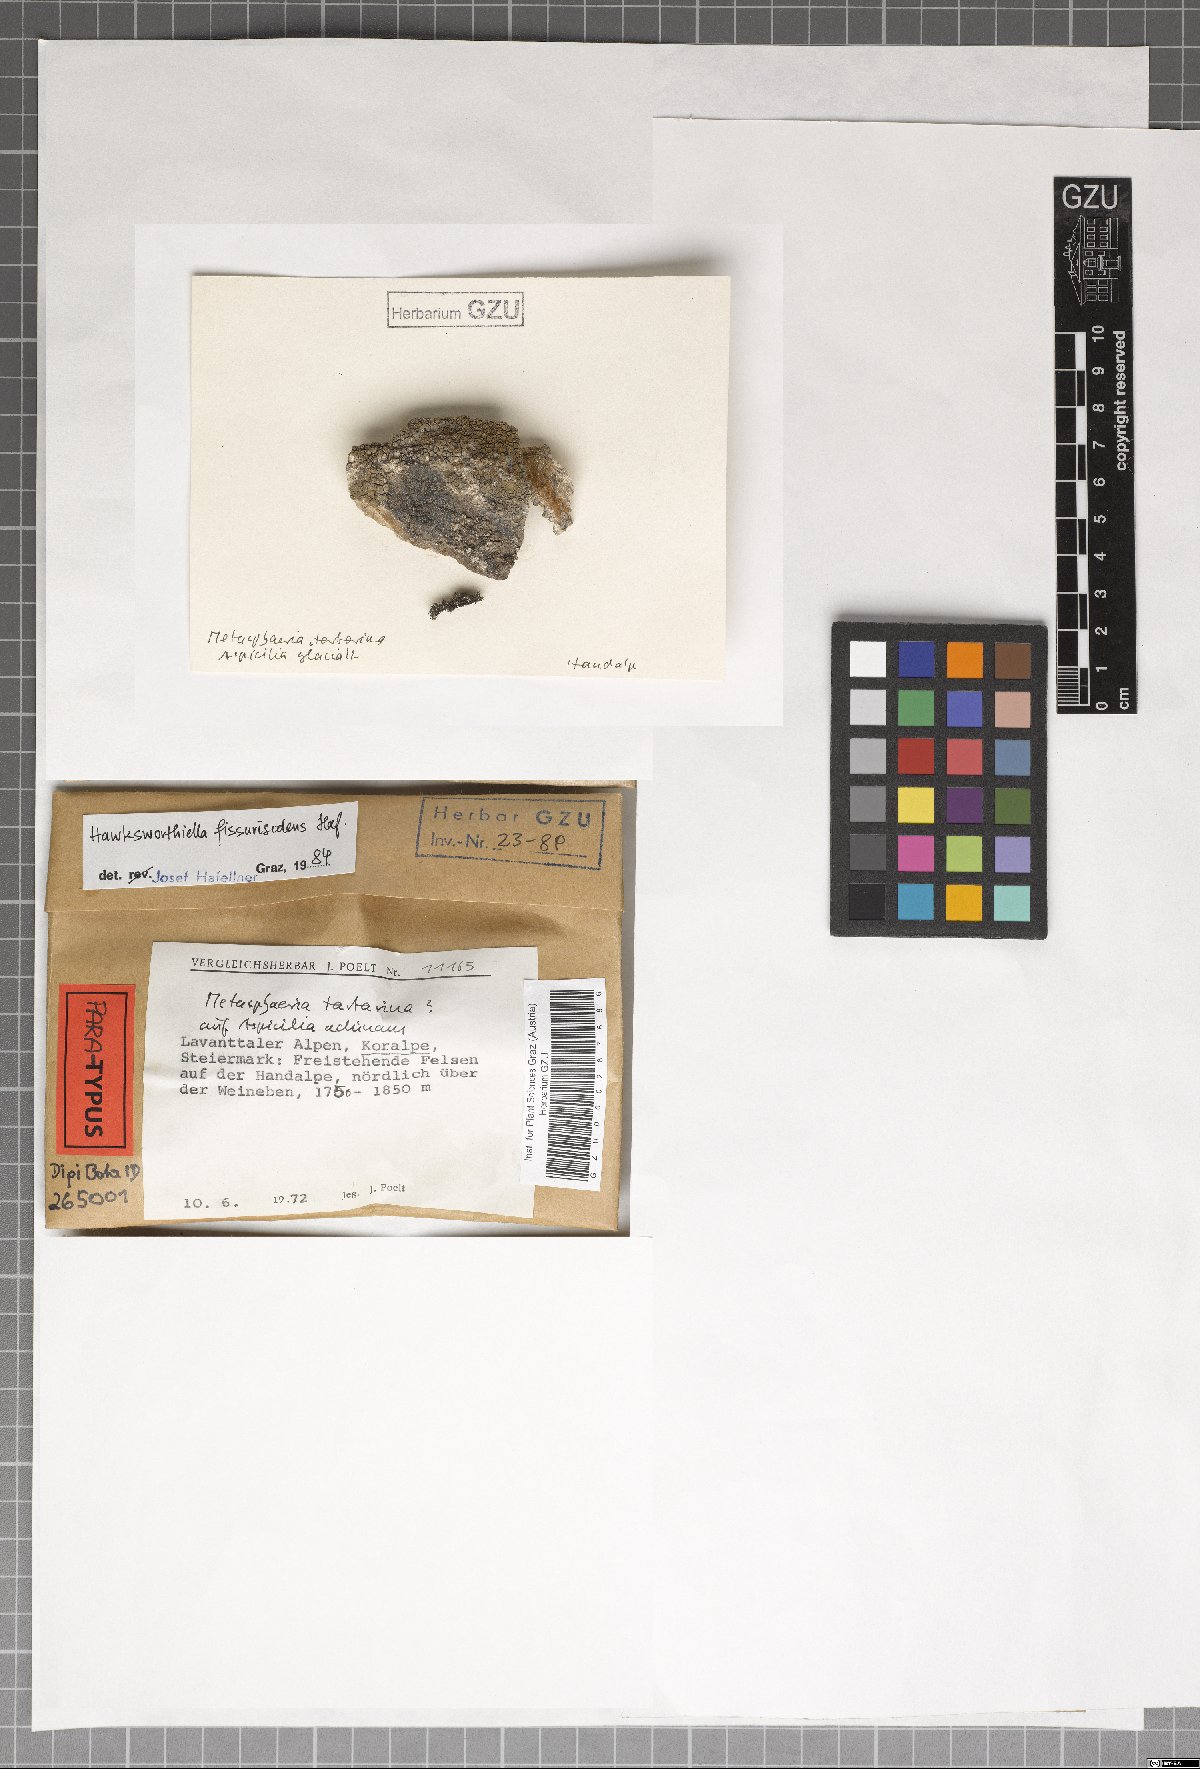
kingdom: Fungi
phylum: Ascomycota
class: Eurotiomycetes
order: Verrucariales
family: Adelococcaceae
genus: Sagediopsis
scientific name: Sagediopsis fissurisedens
